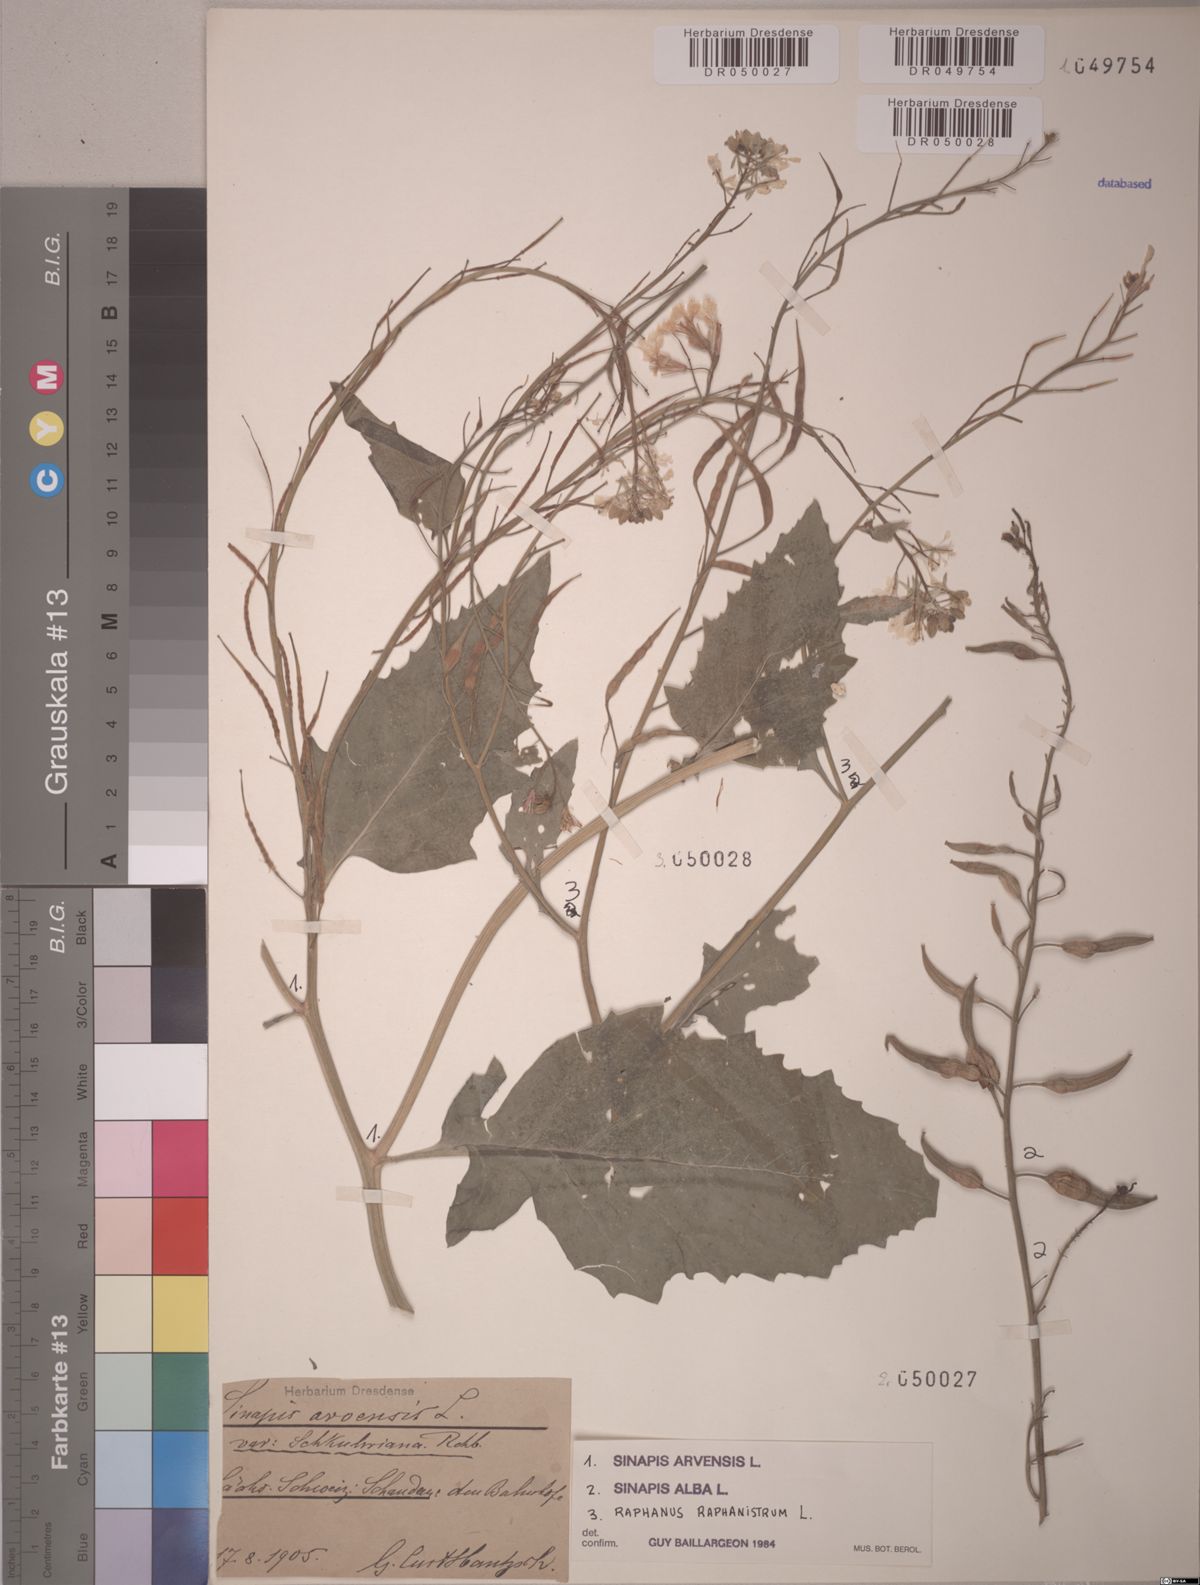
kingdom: Plantae
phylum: Tracheophyta
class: Magnoliopsida
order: Brassicales
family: Brassicaceae
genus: Sinapis
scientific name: Sinapis arvensis
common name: Charlock
